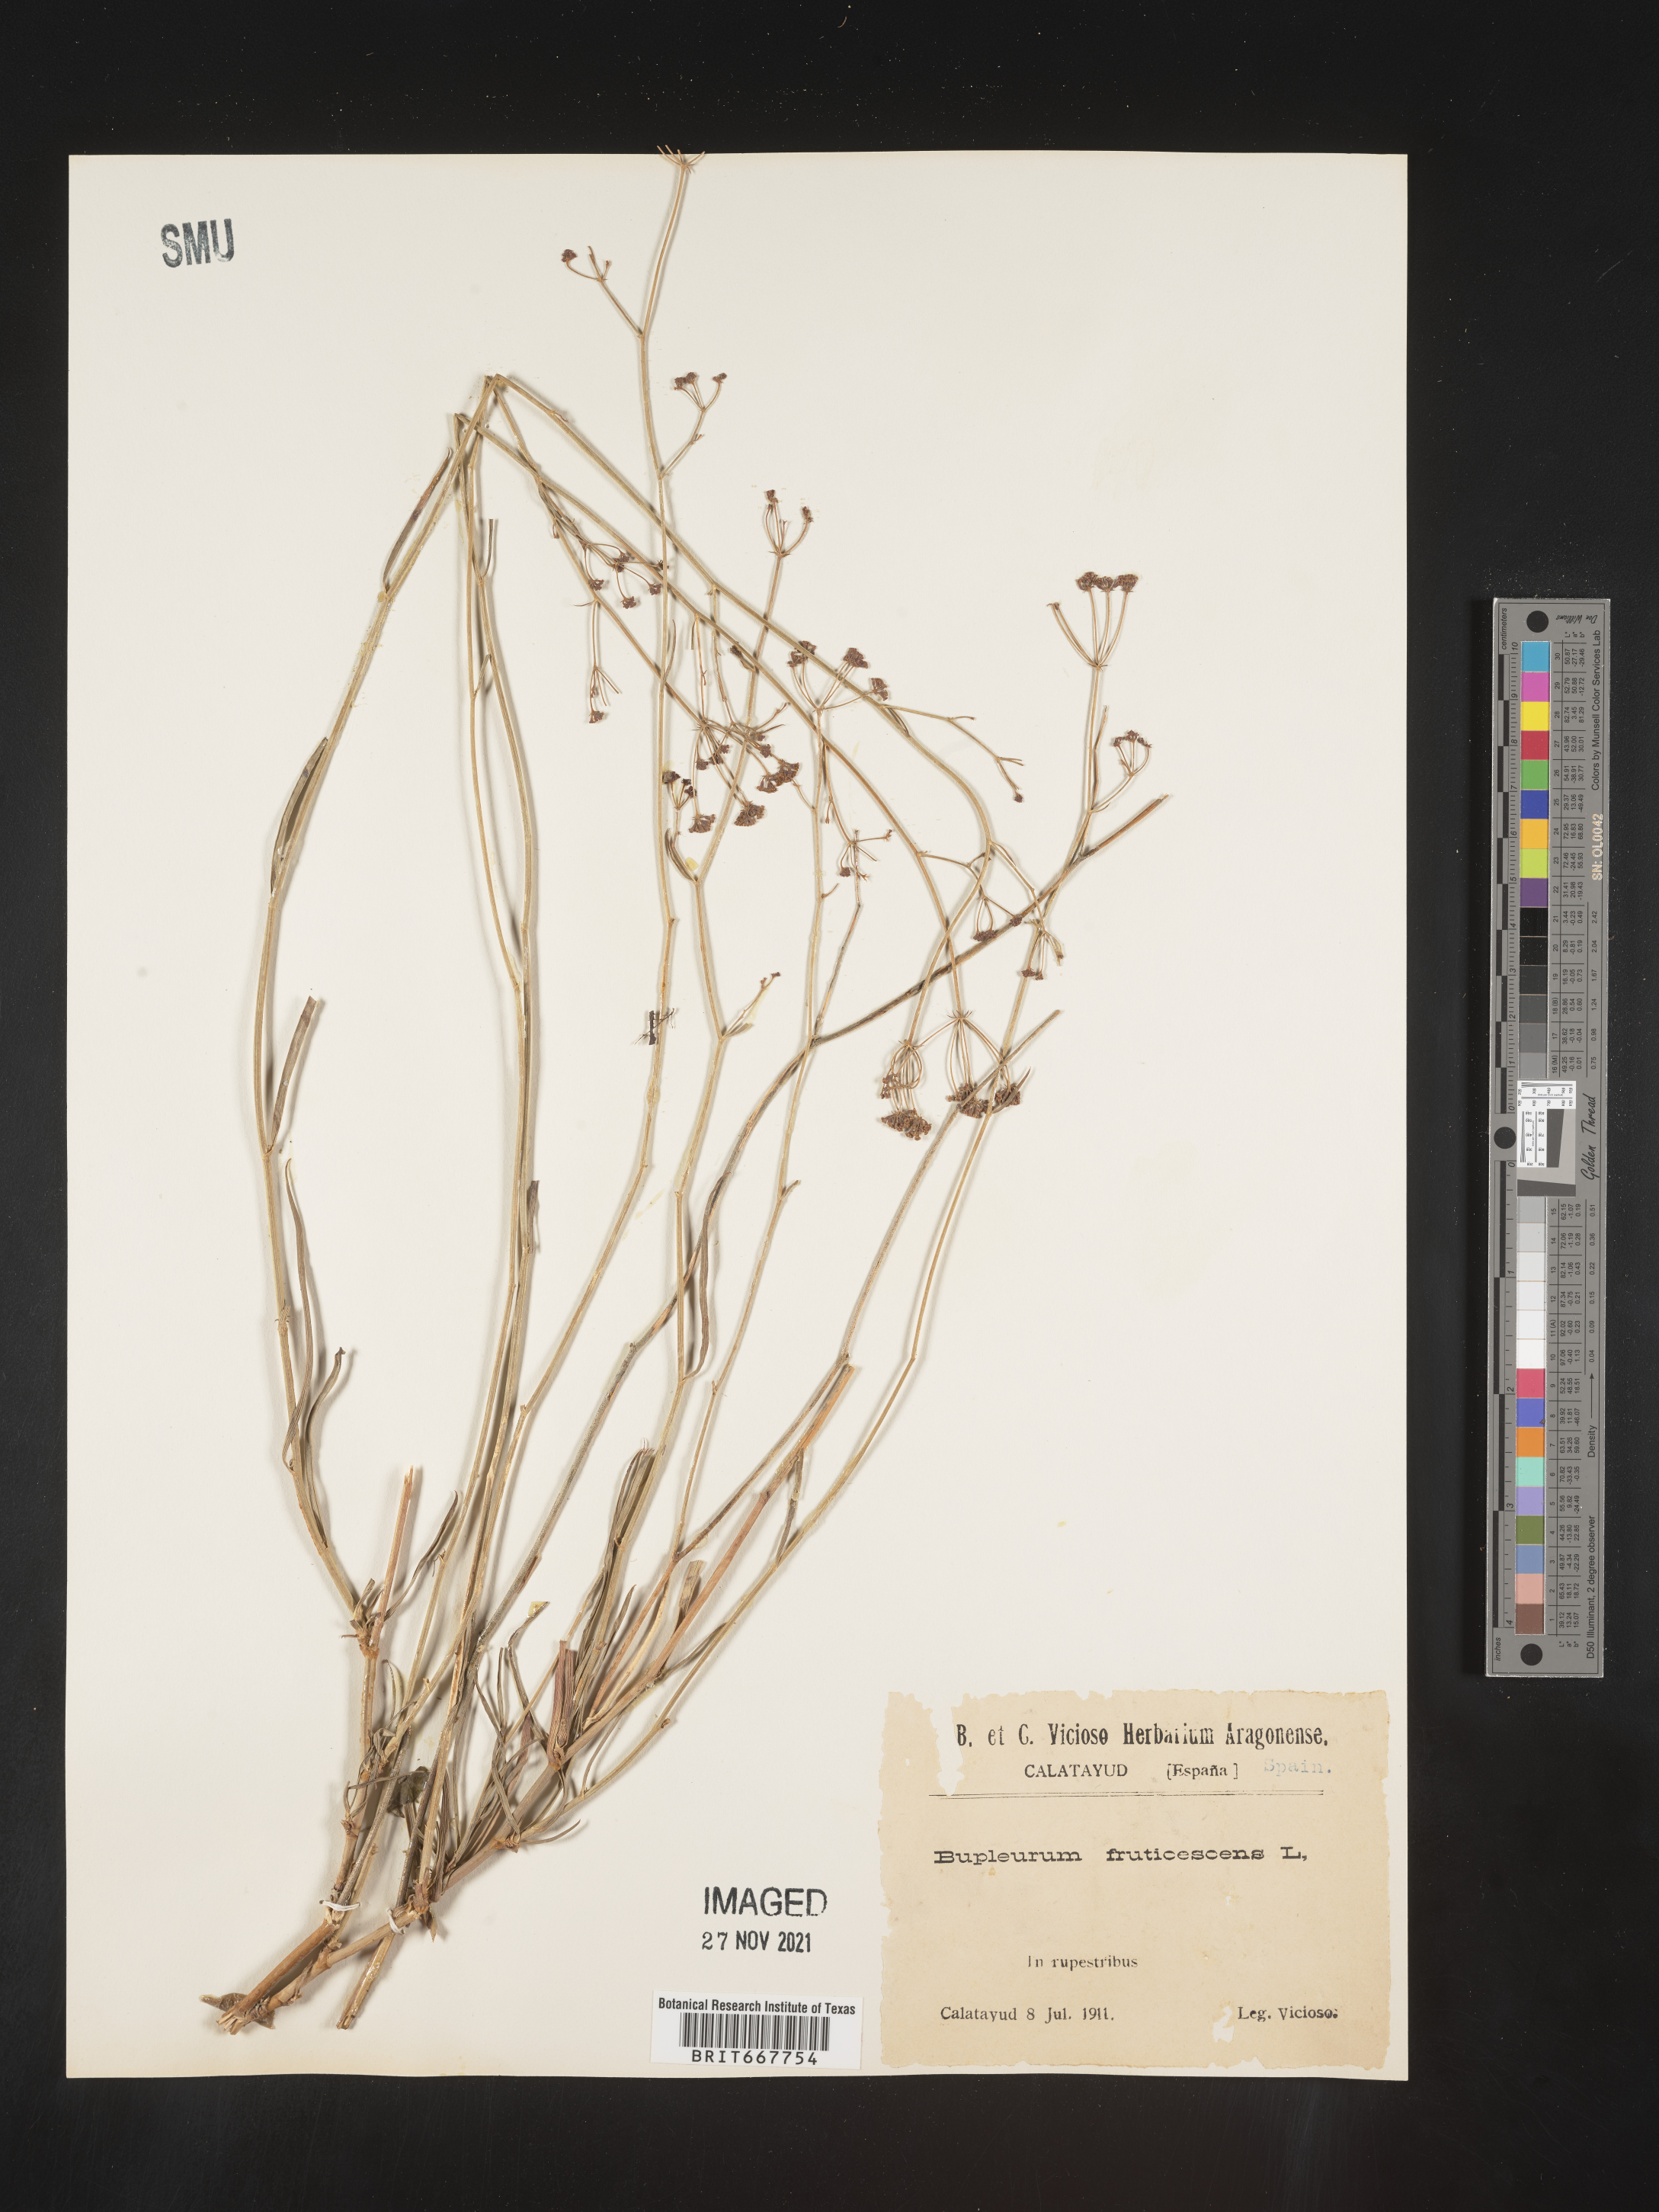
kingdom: Plantae
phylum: Tracheophyta
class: Magnoliopsida
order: Apiales
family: Apiaceae
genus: Bupleurum
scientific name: Bupleurum
